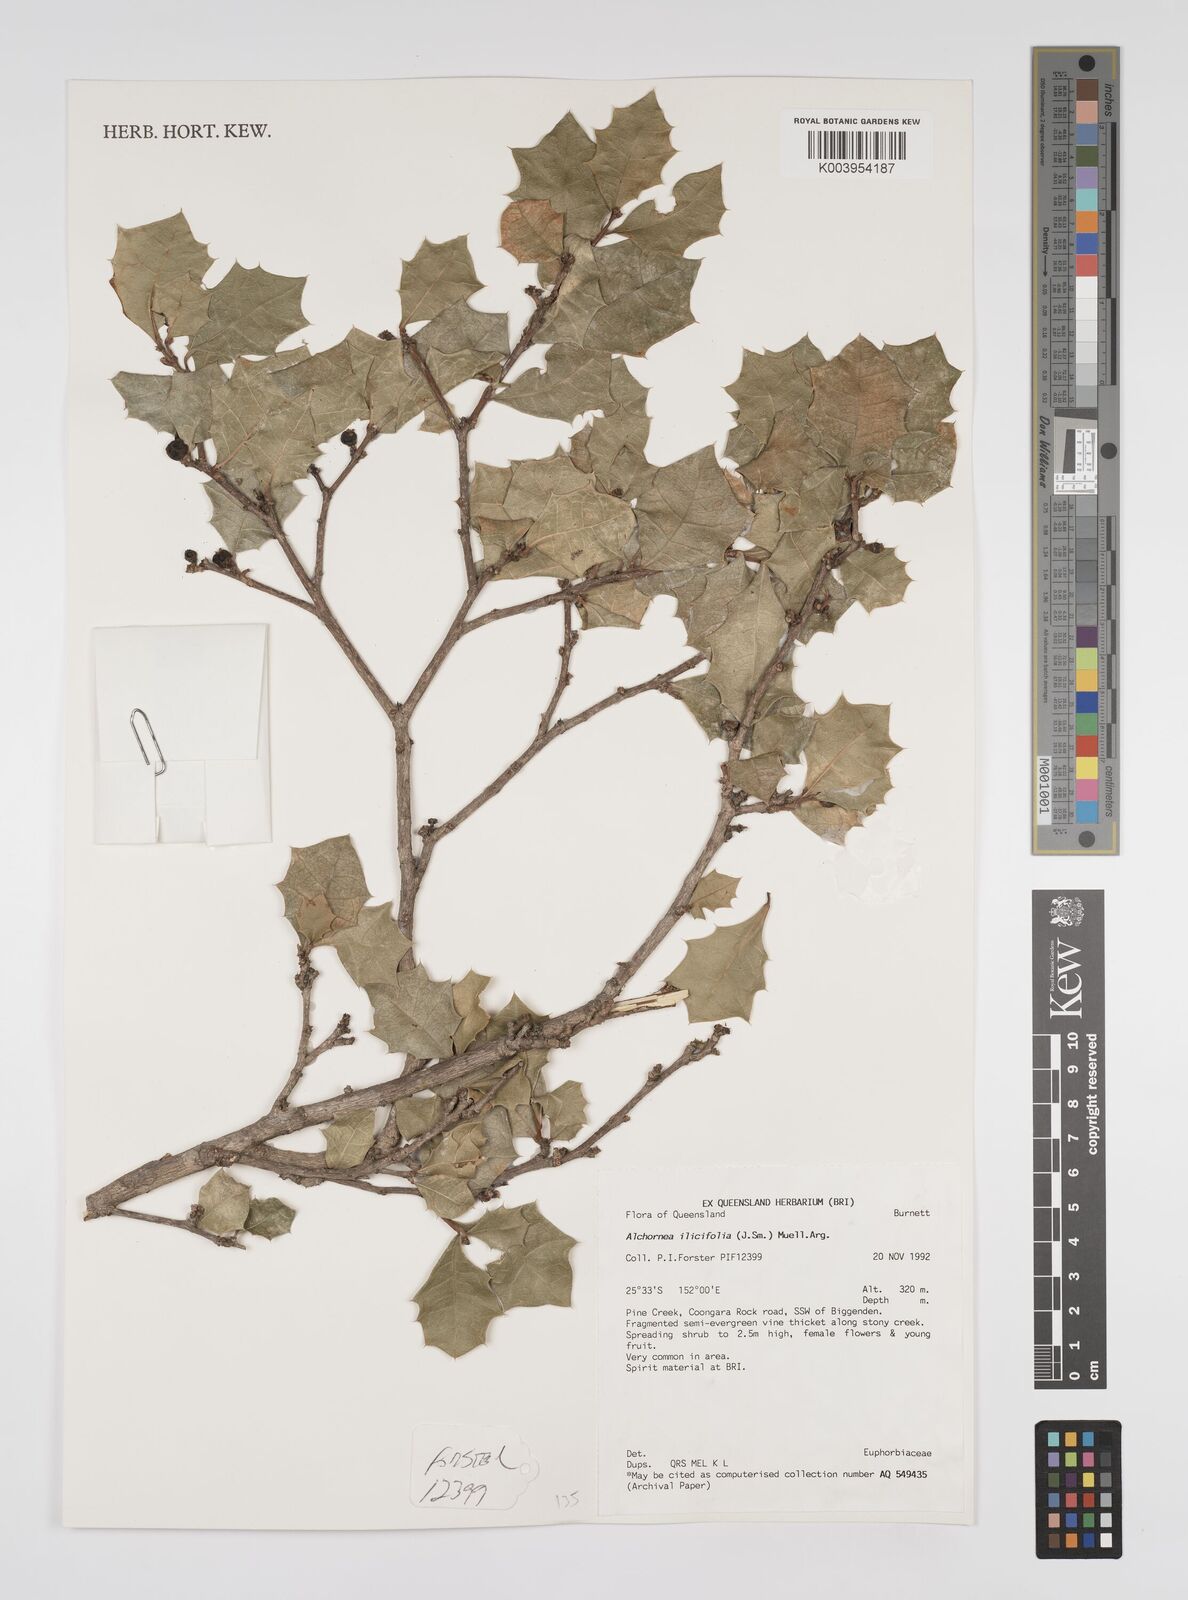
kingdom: Plantae
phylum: Tracheophyta
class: Magnoliopsida
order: Malpighiales
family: Euphorbiaceae
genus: Alchornea
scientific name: Alchornea ilicifolia
